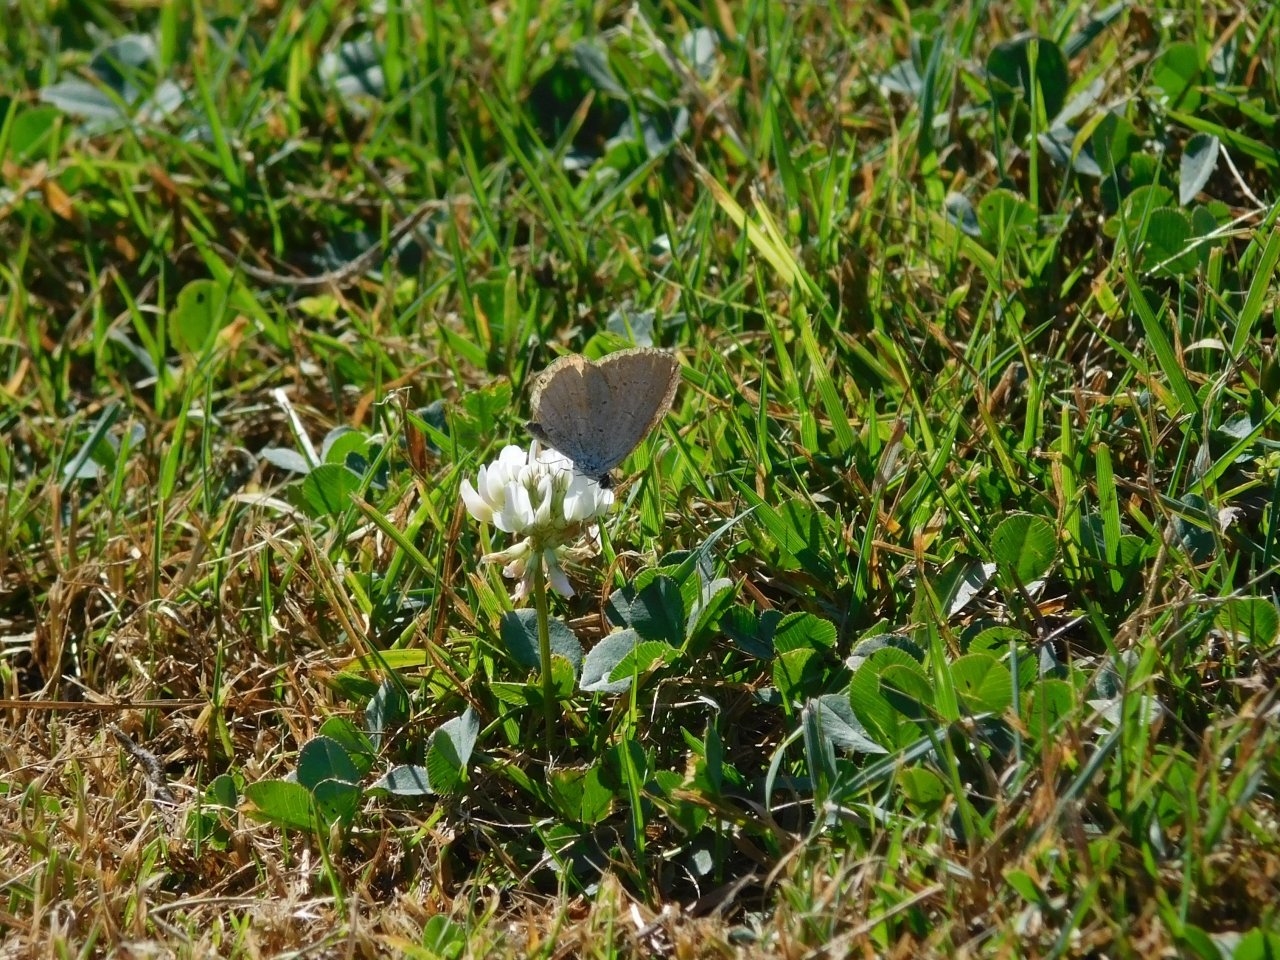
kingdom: Animalia
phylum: Arthropoda
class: Insecta
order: Lepidoptera
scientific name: Lepidoptera
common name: Butterflies
